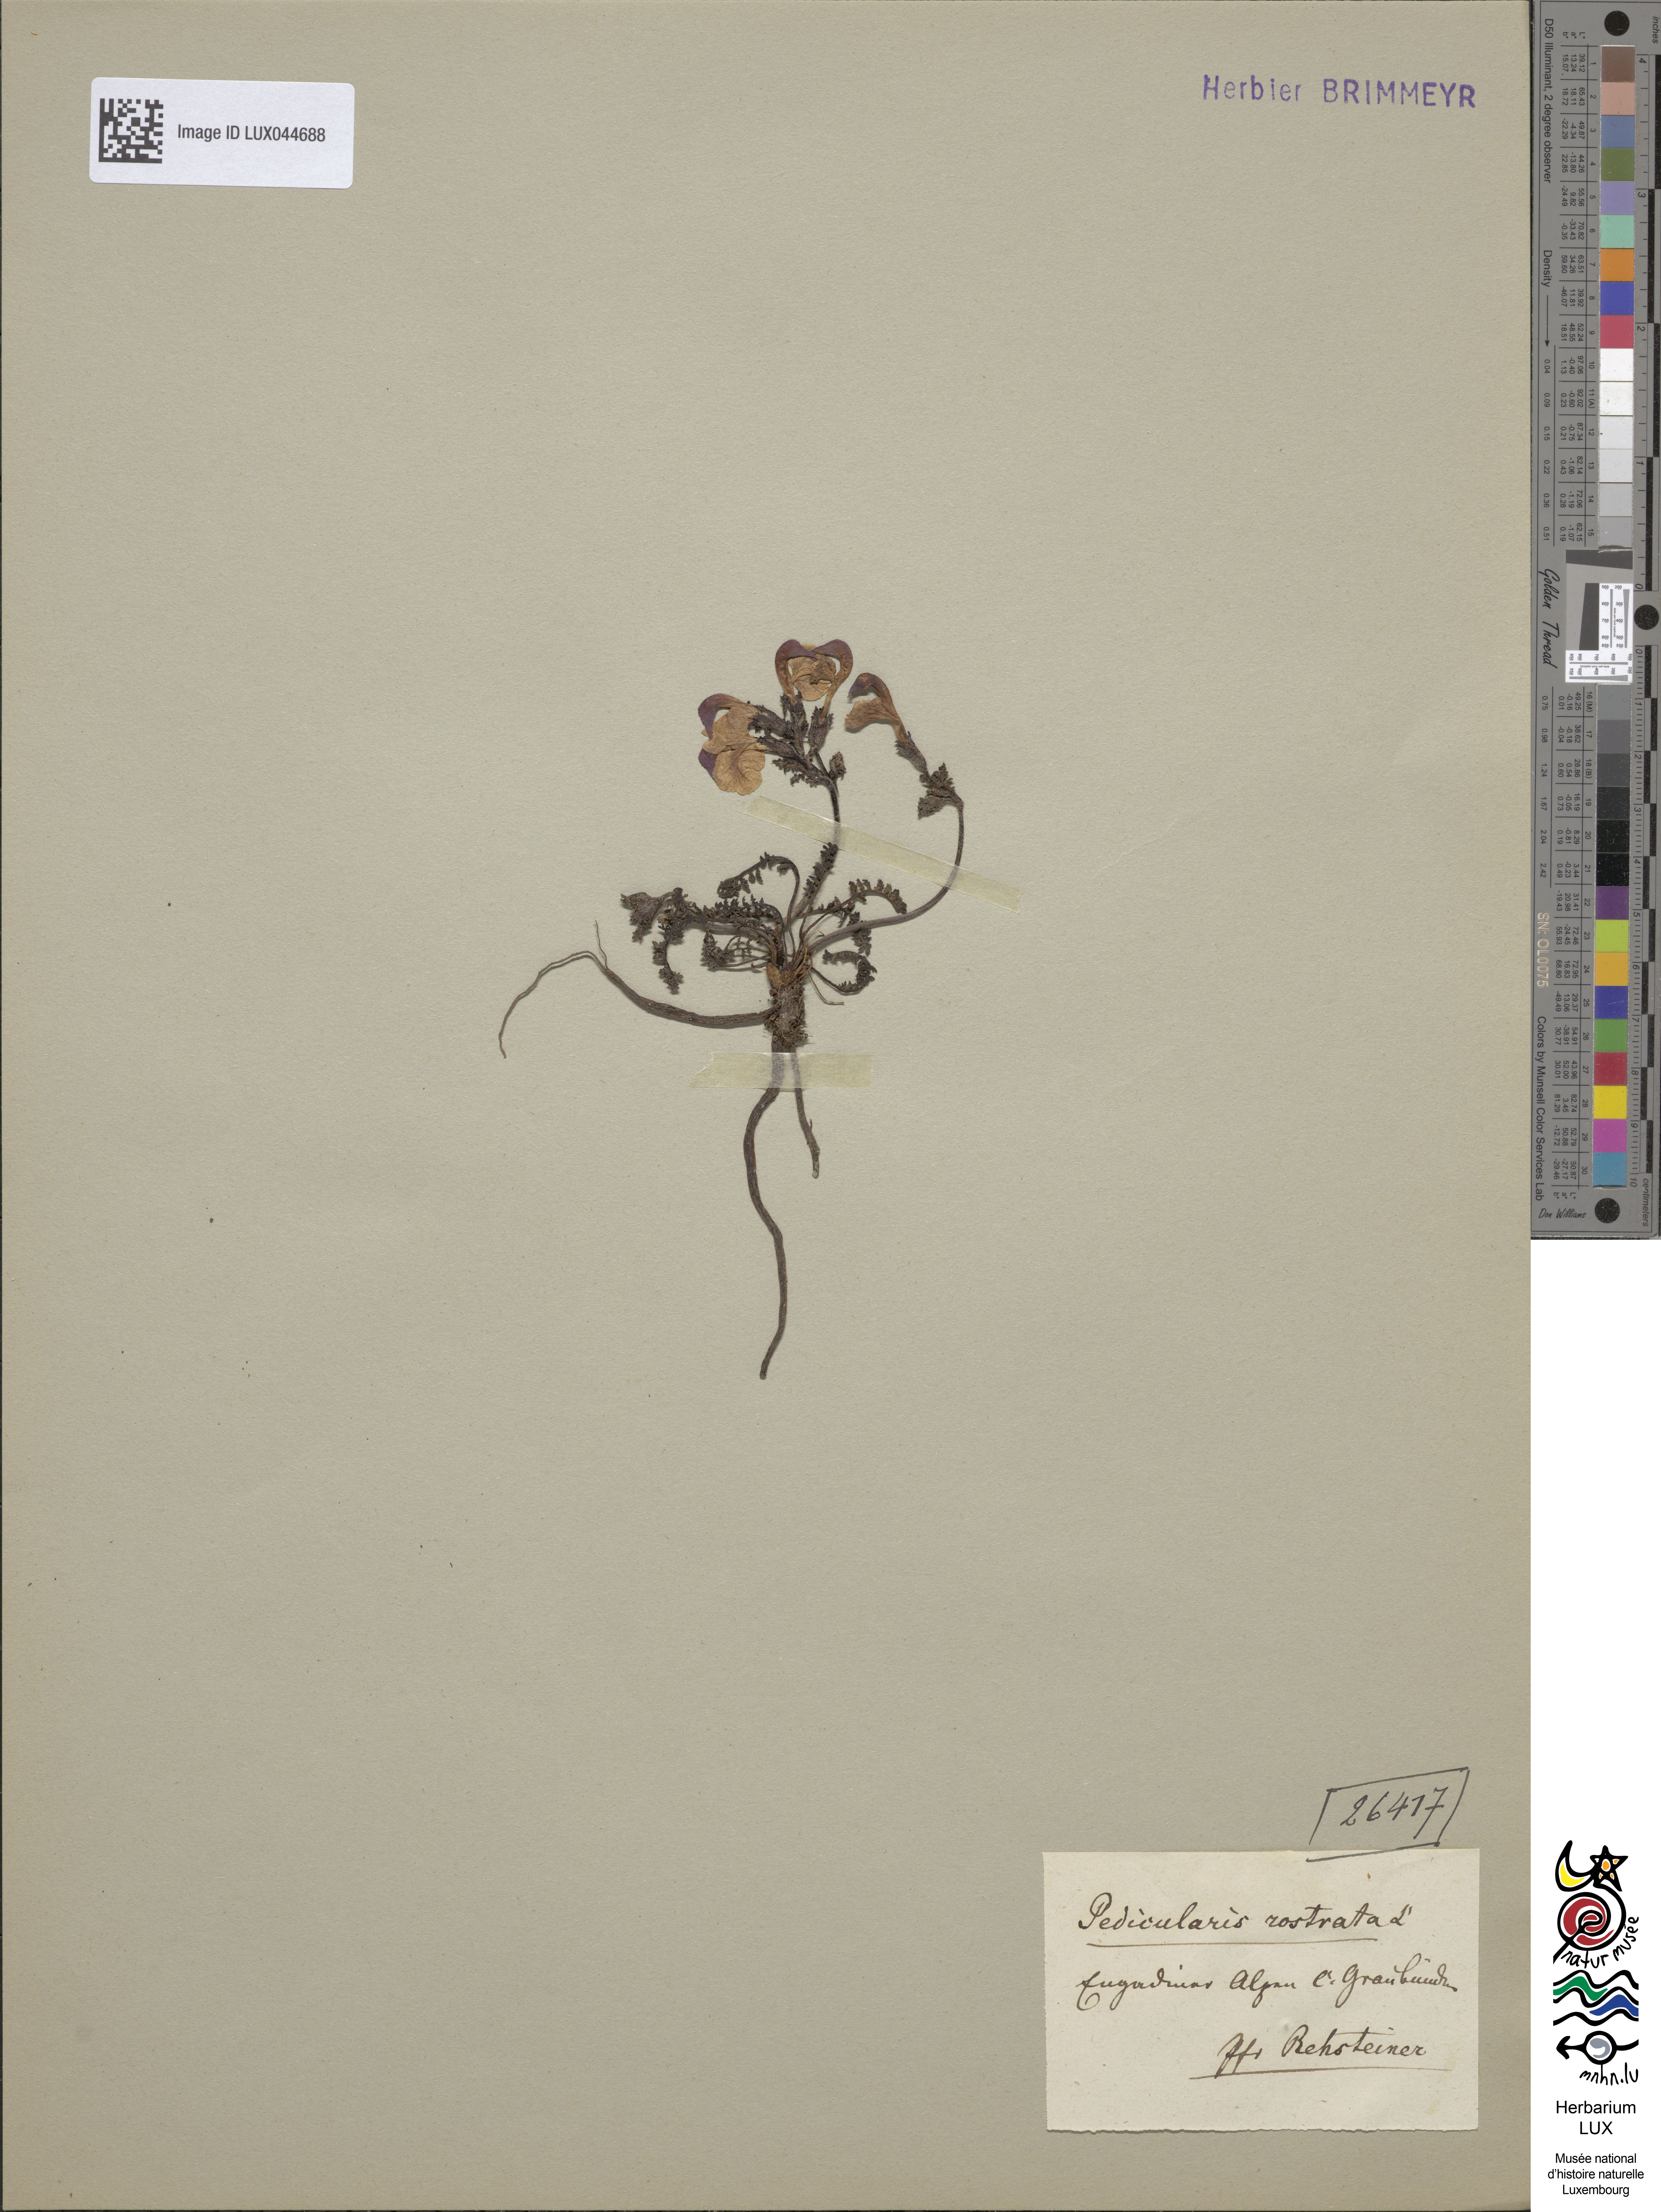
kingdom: Plantae
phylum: Tracheophyta
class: Magnoliopsida
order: Lamiales
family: Orobanchaceae
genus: Pedicularis
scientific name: Pedicularis rostratocapitata
